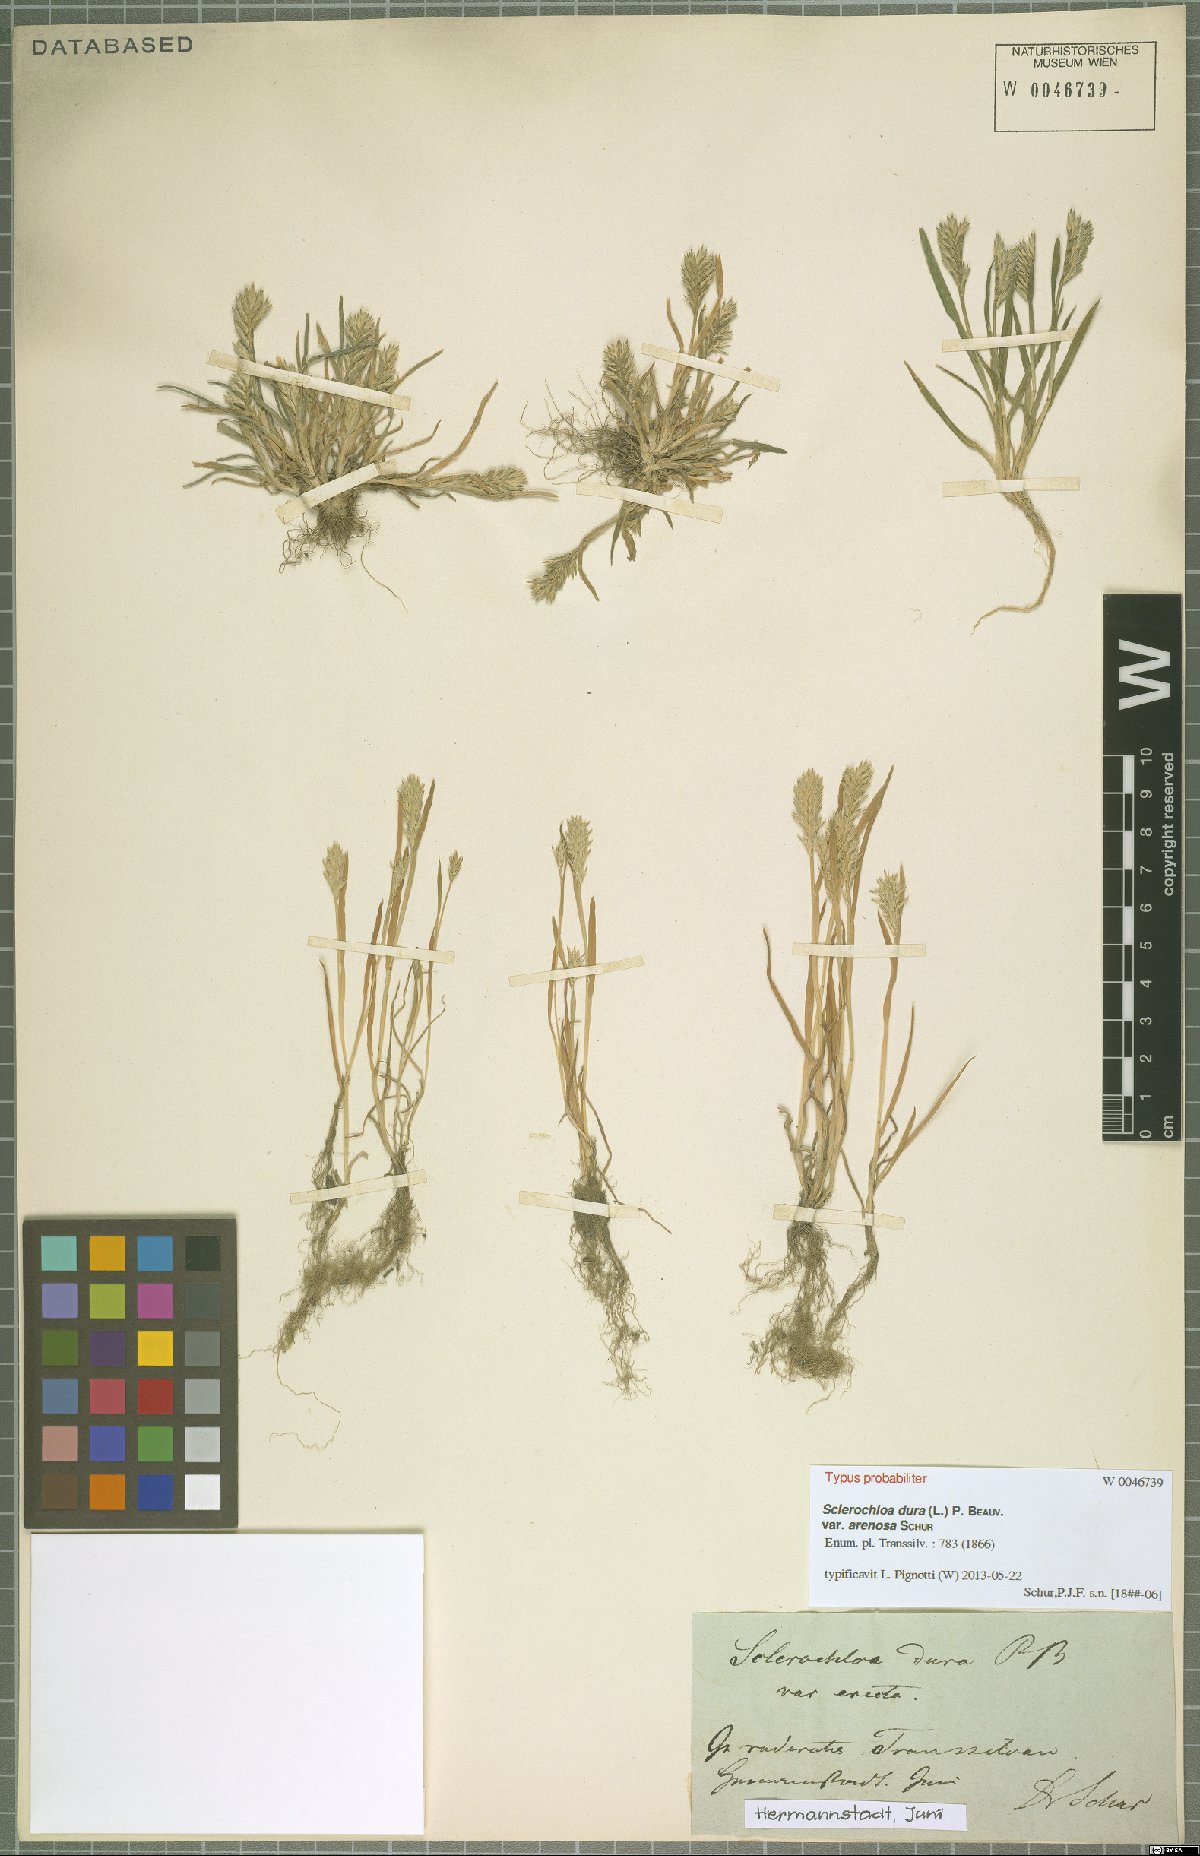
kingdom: Plantae
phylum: Tracheophyta
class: Liliopsida
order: Poales
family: Poaceae
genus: Sclerochloa
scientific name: Sclerochloa dura
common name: Common hardgrass
